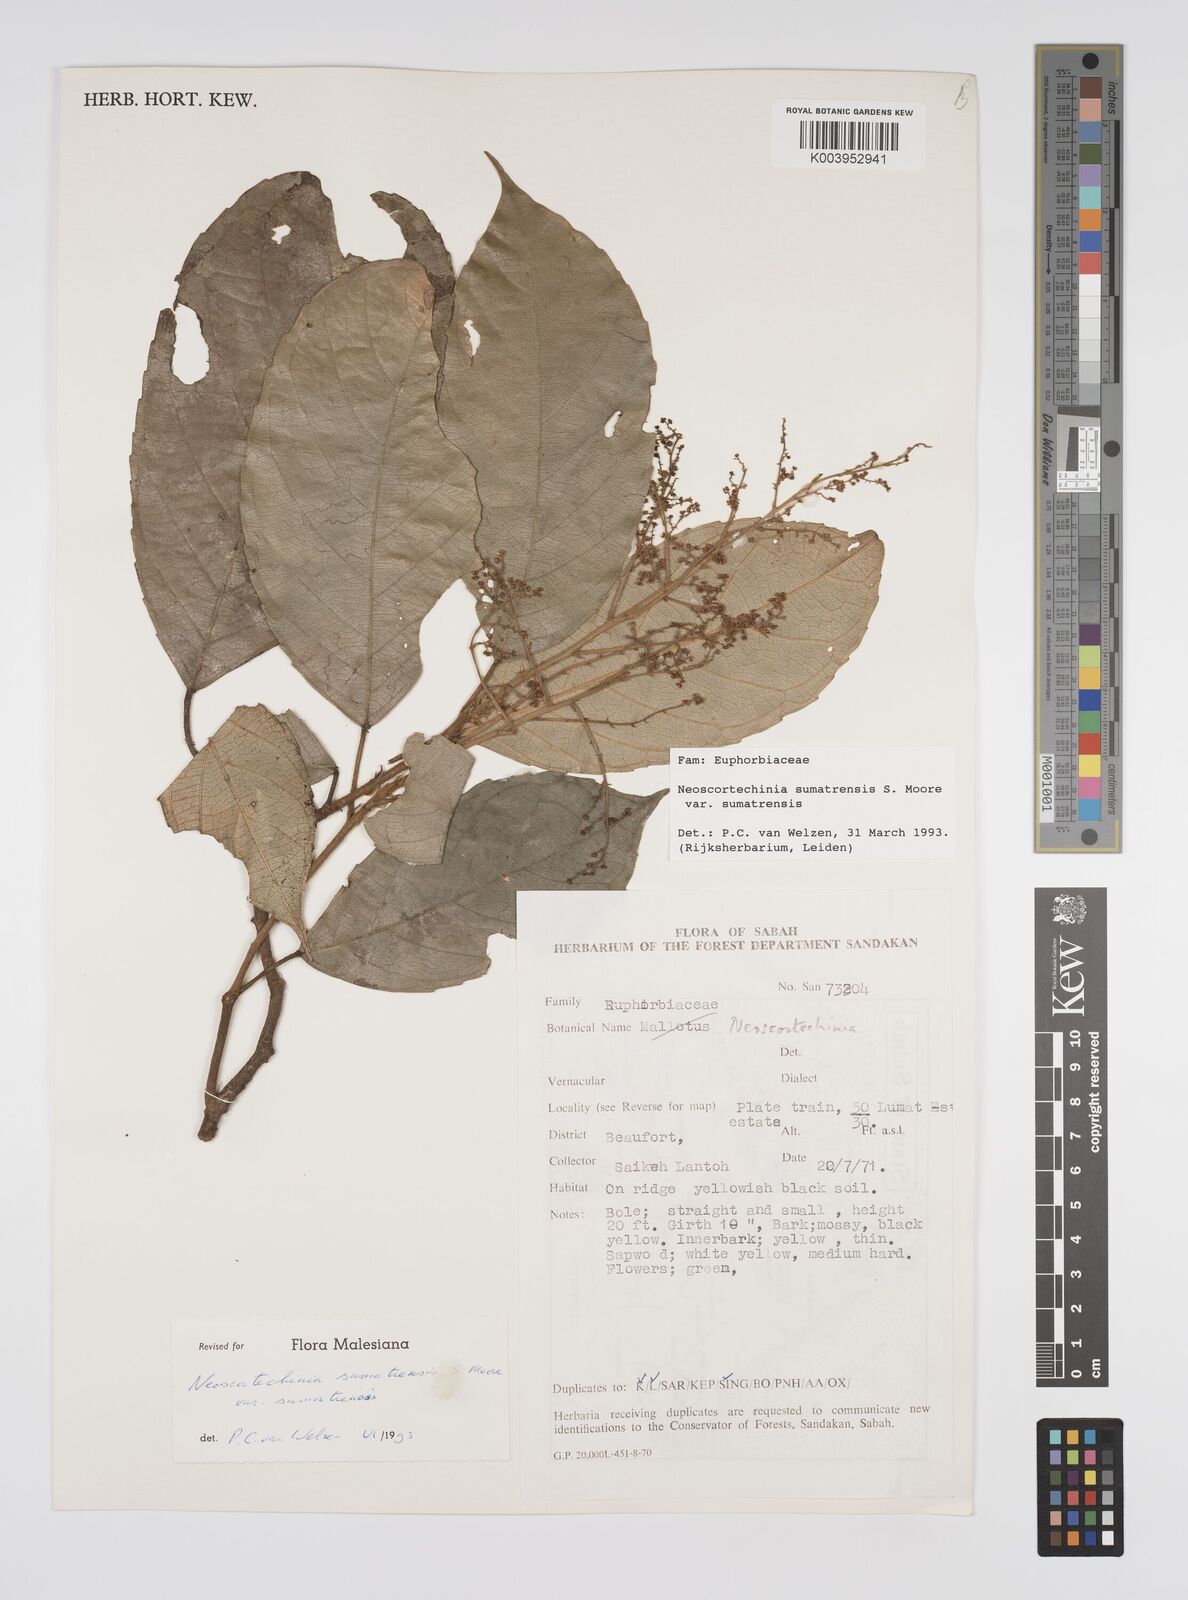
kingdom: Plantae
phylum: Tracheophyta
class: Magnoliopsida
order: Malpighiales
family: Euphorbiaceae
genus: Neoscortechinia
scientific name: Neoscortechinia sumatrensis
